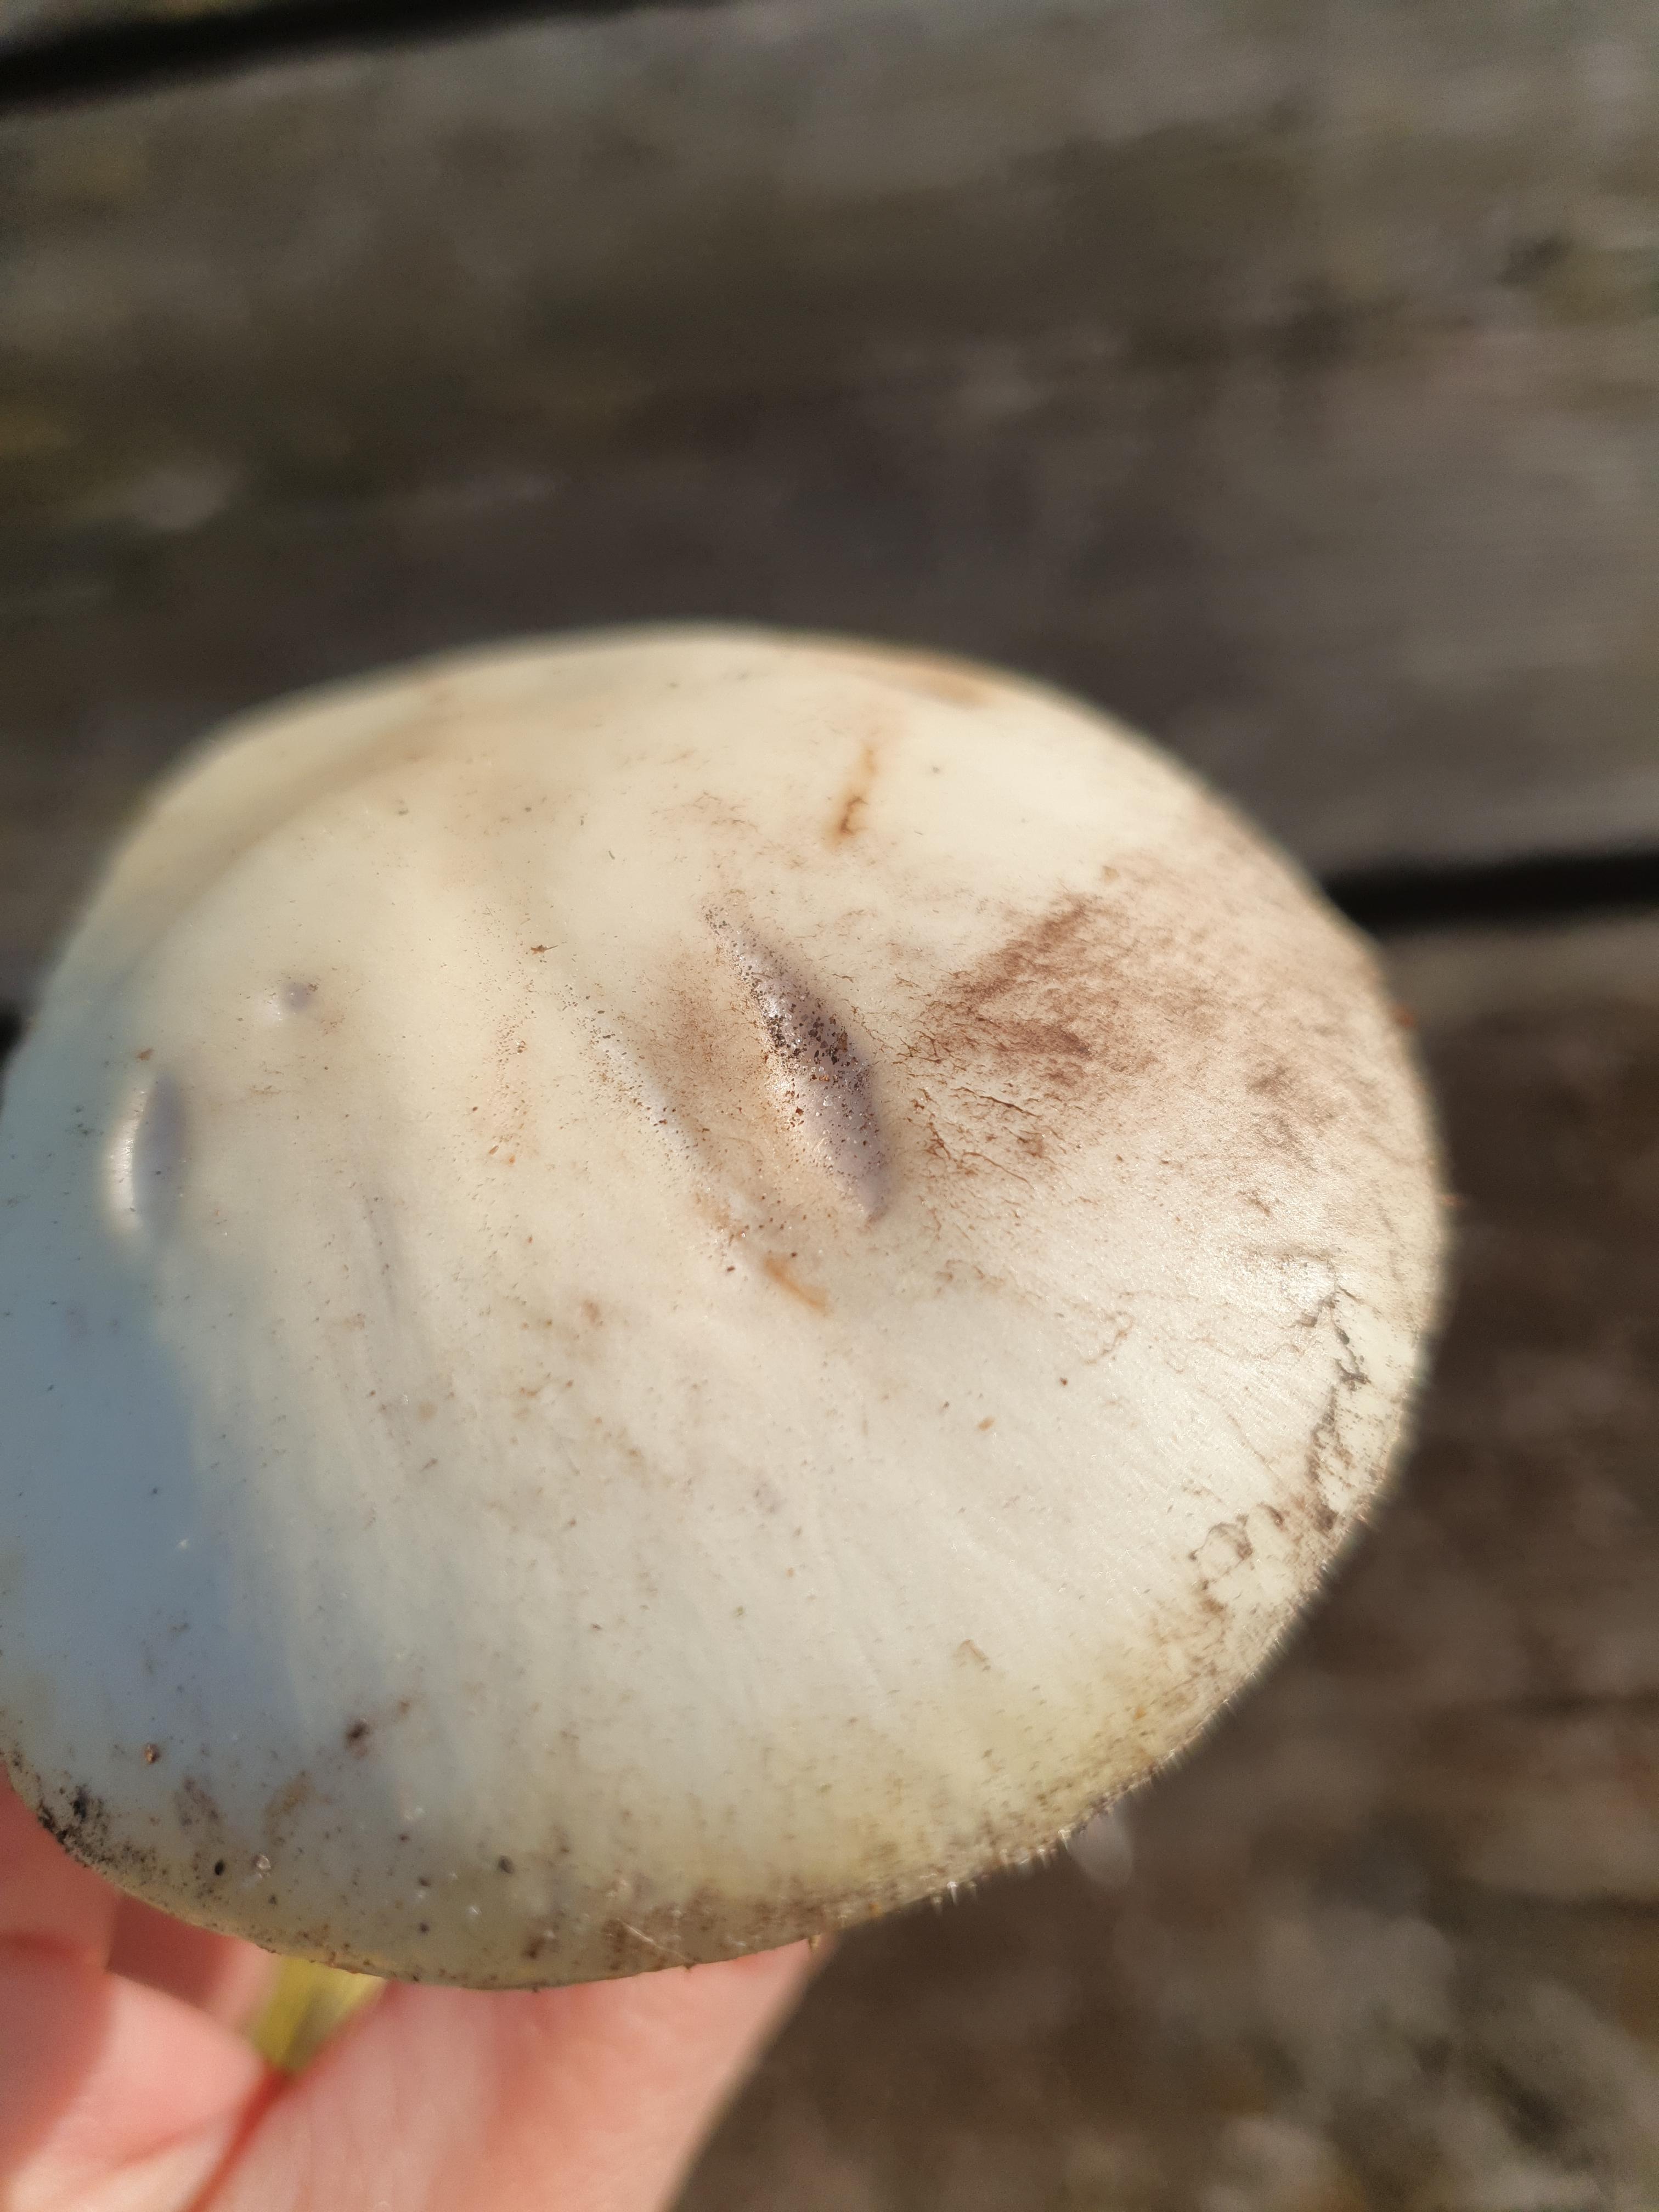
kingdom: Fungi
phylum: Basidiomycota
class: Agaricomycetes
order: Agaricales
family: Amanitaceae
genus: Amanita
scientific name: Amanita citrina
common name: kugleknoldet fluesvamp
